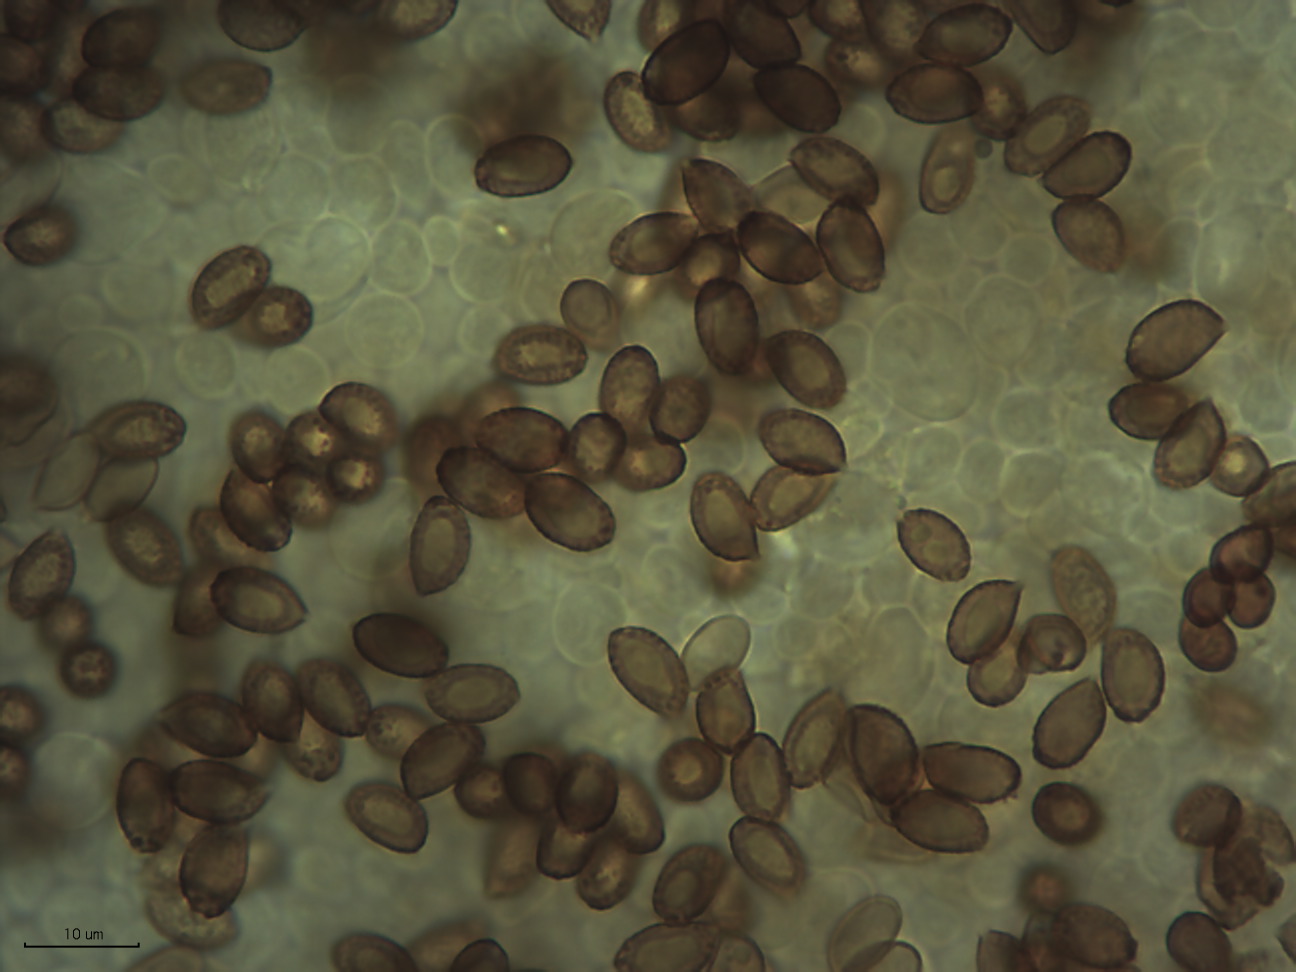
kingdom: Fungi
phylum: Basidiomycota
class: Agaricomycetes
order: Agaricales
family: Cortinariaceae
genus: Cortinarius
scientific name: Cortinarius jacobi-langei
